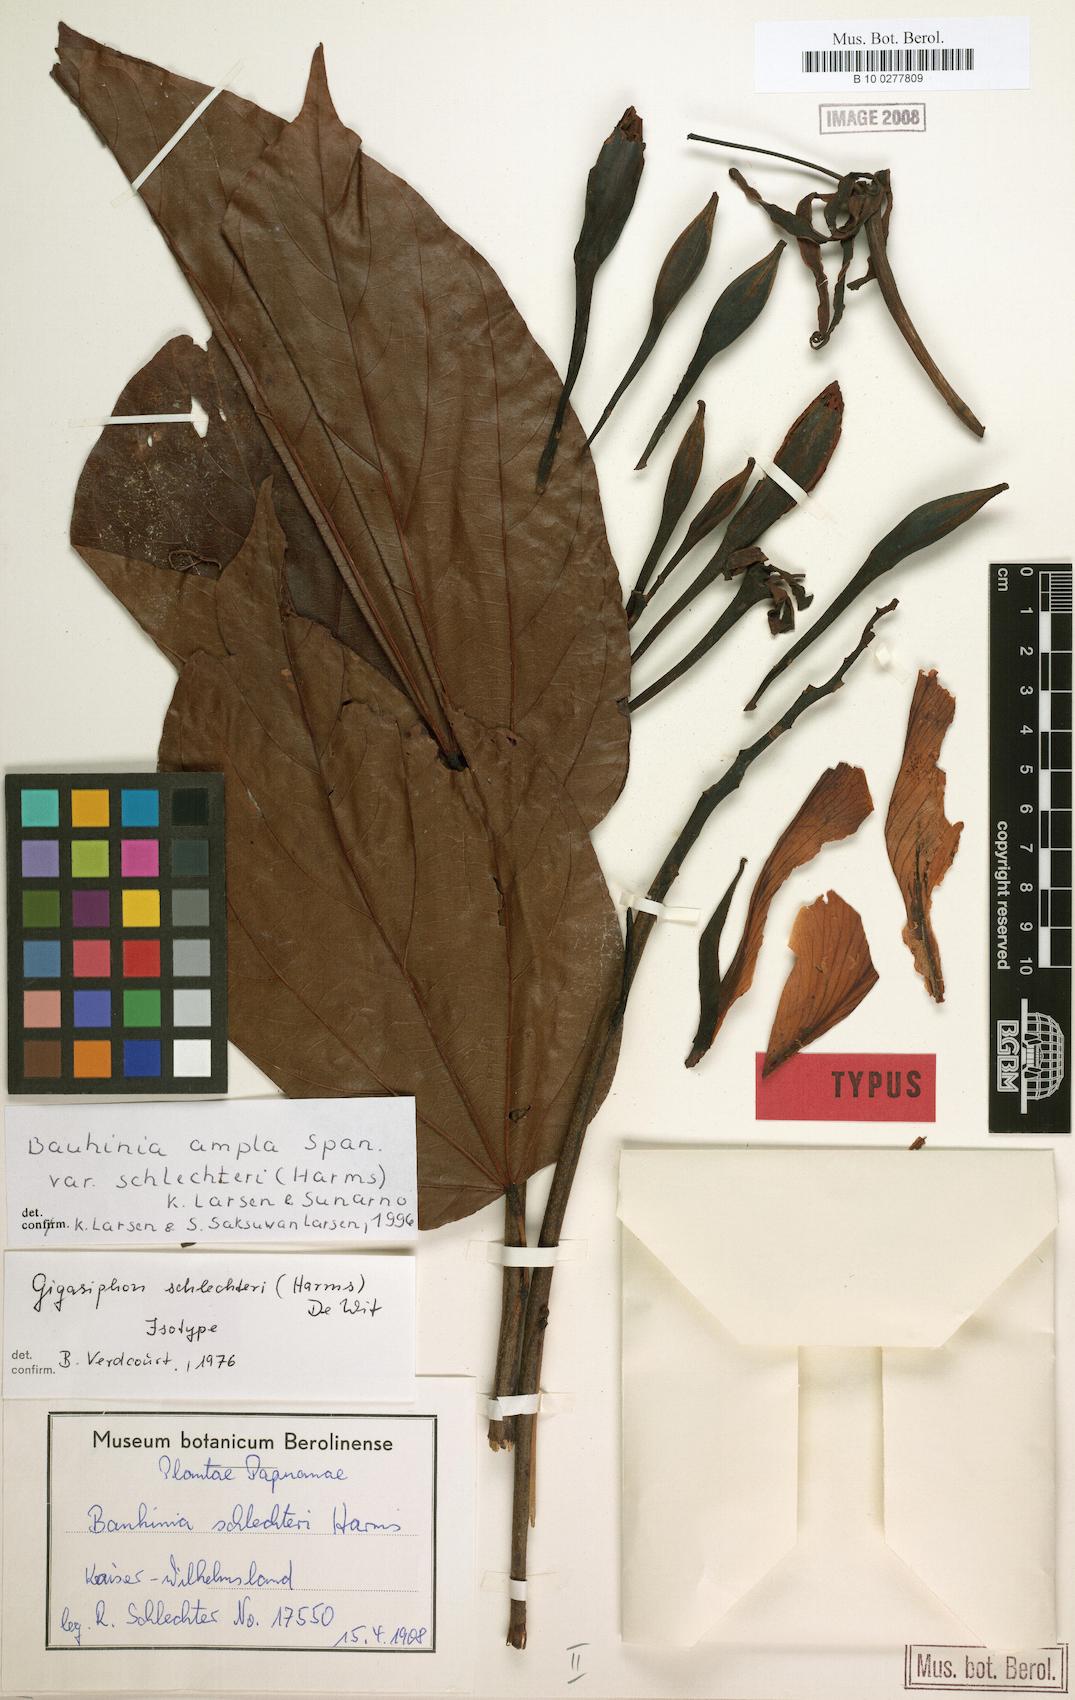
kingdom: Plantae
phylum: Tracheophyta
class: Magnoliopsida
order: Fabales
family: Fabaceae
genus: Gigasiphon
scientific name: Gigasiphon schlechteri
